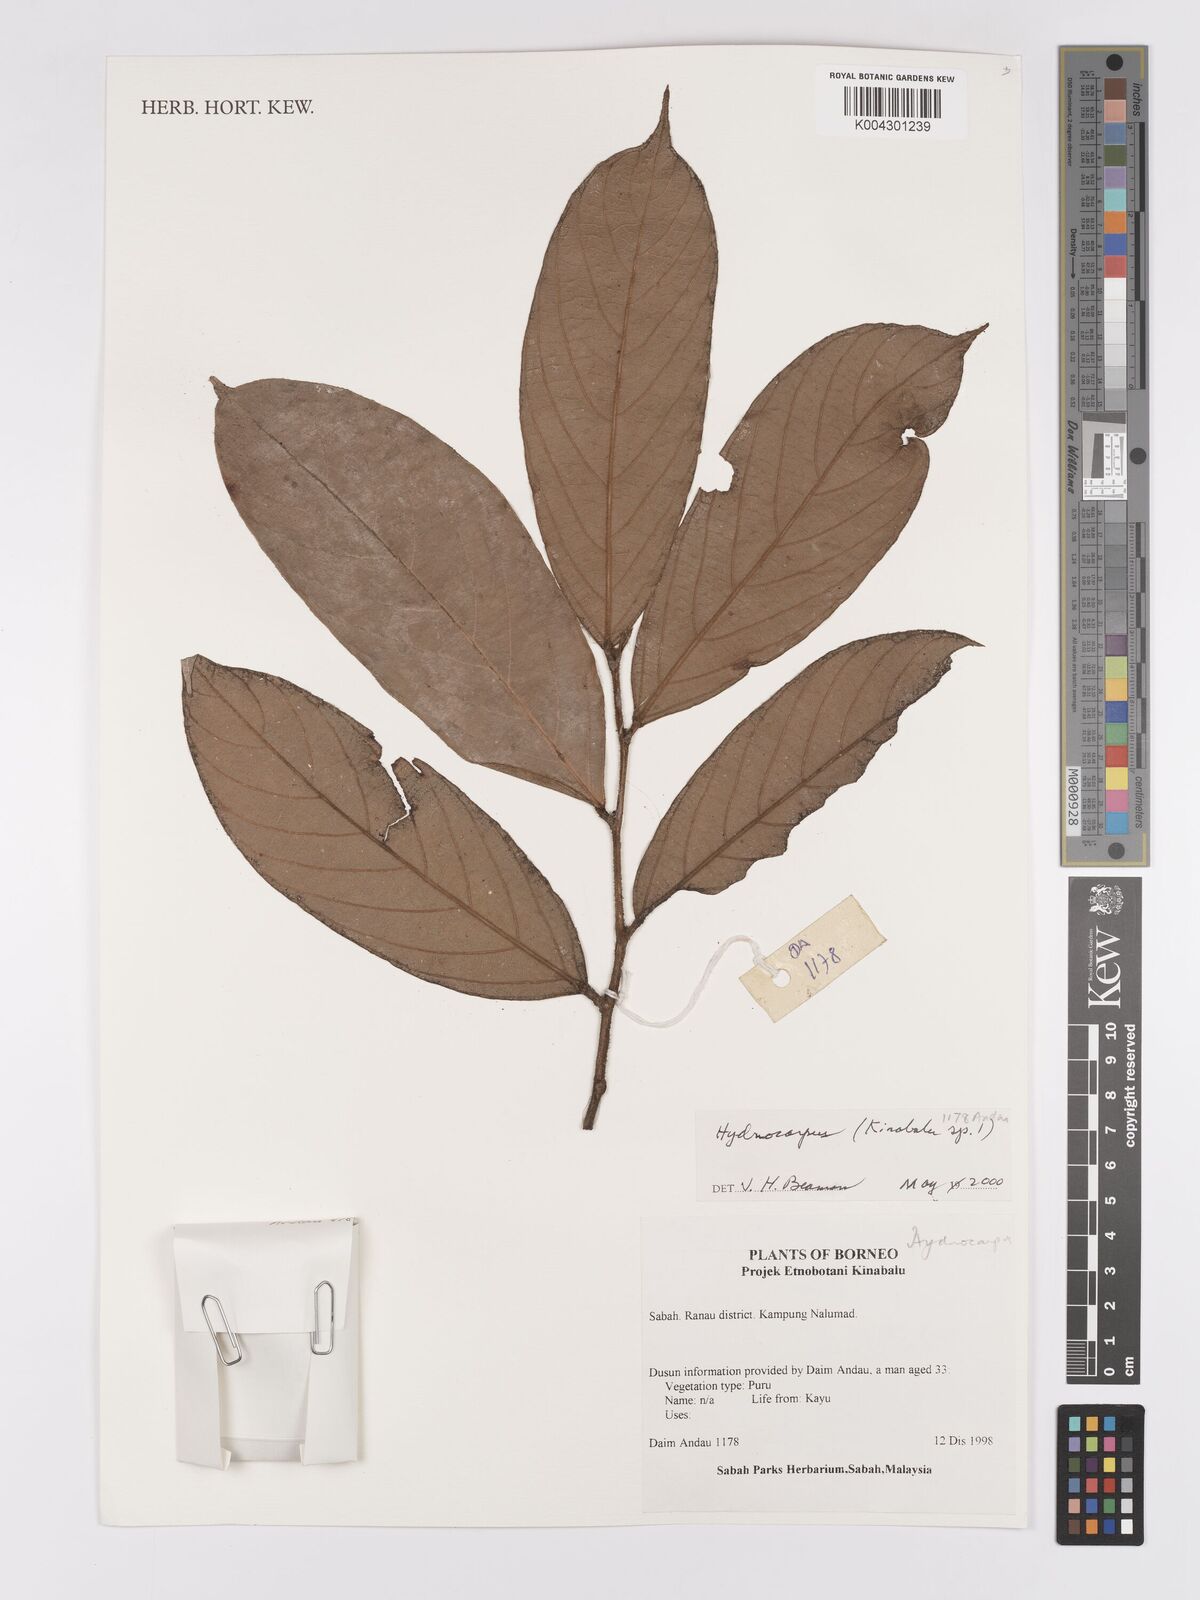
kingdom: Plantae
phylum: Tracheophyta
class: Magnoliopsida
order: Malpighiales
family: Achariaceae
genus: Hydnocarpus
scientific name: Hydnocarpus
